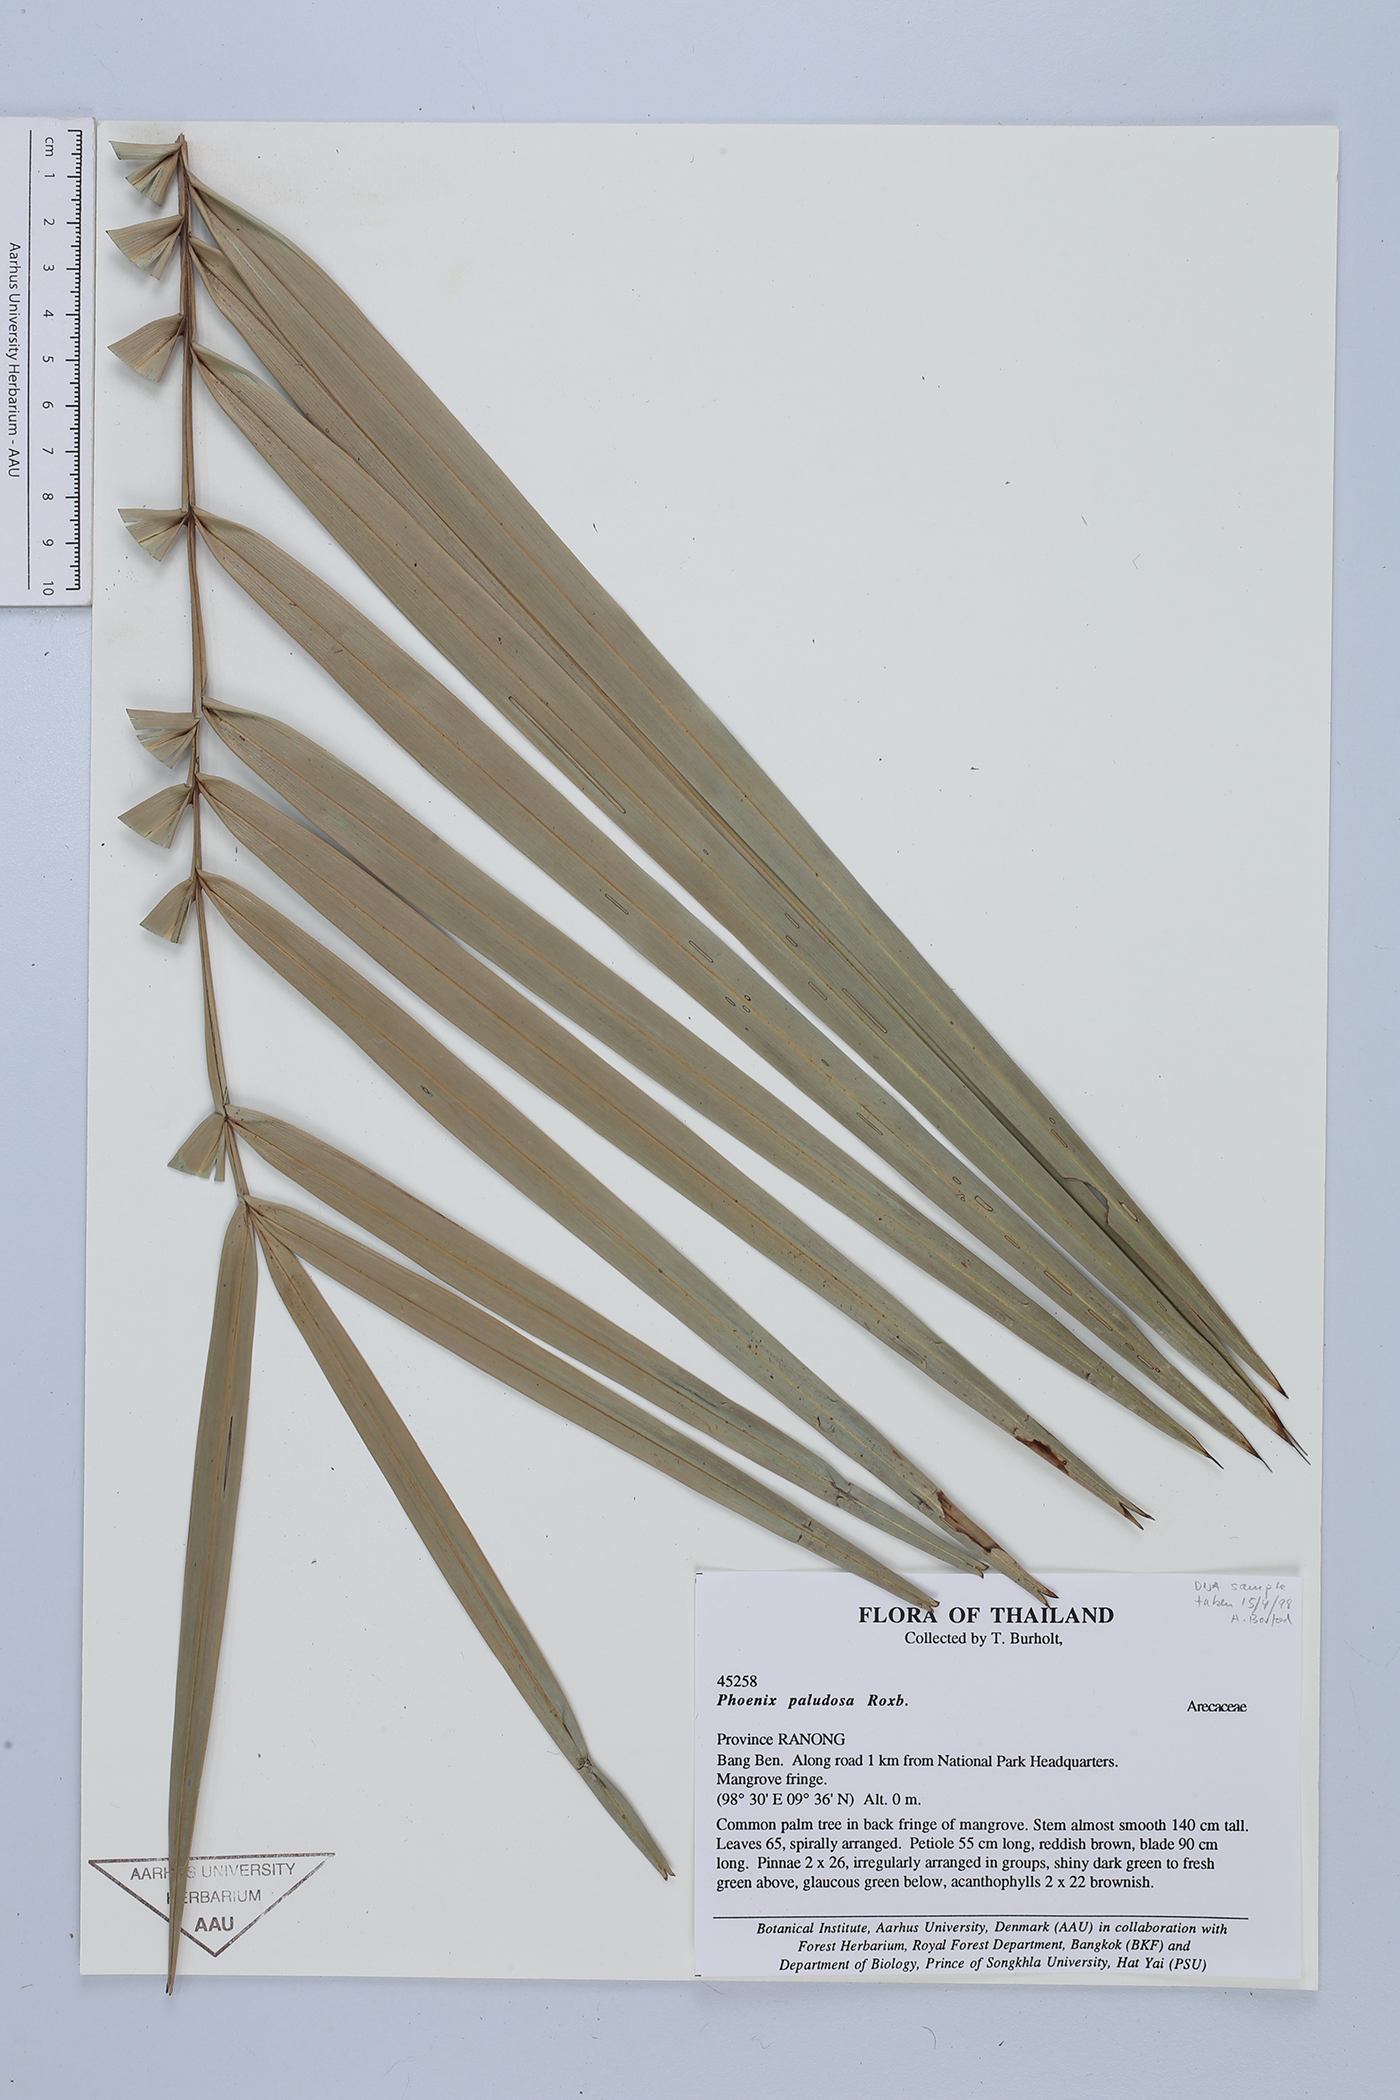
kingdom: Plantae
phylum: Tracheophyta
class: Liliopsida
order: Arecales
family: Arecaceae
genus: Phoenix
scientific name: Phoenix paludosa
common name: Mangrove date palm
